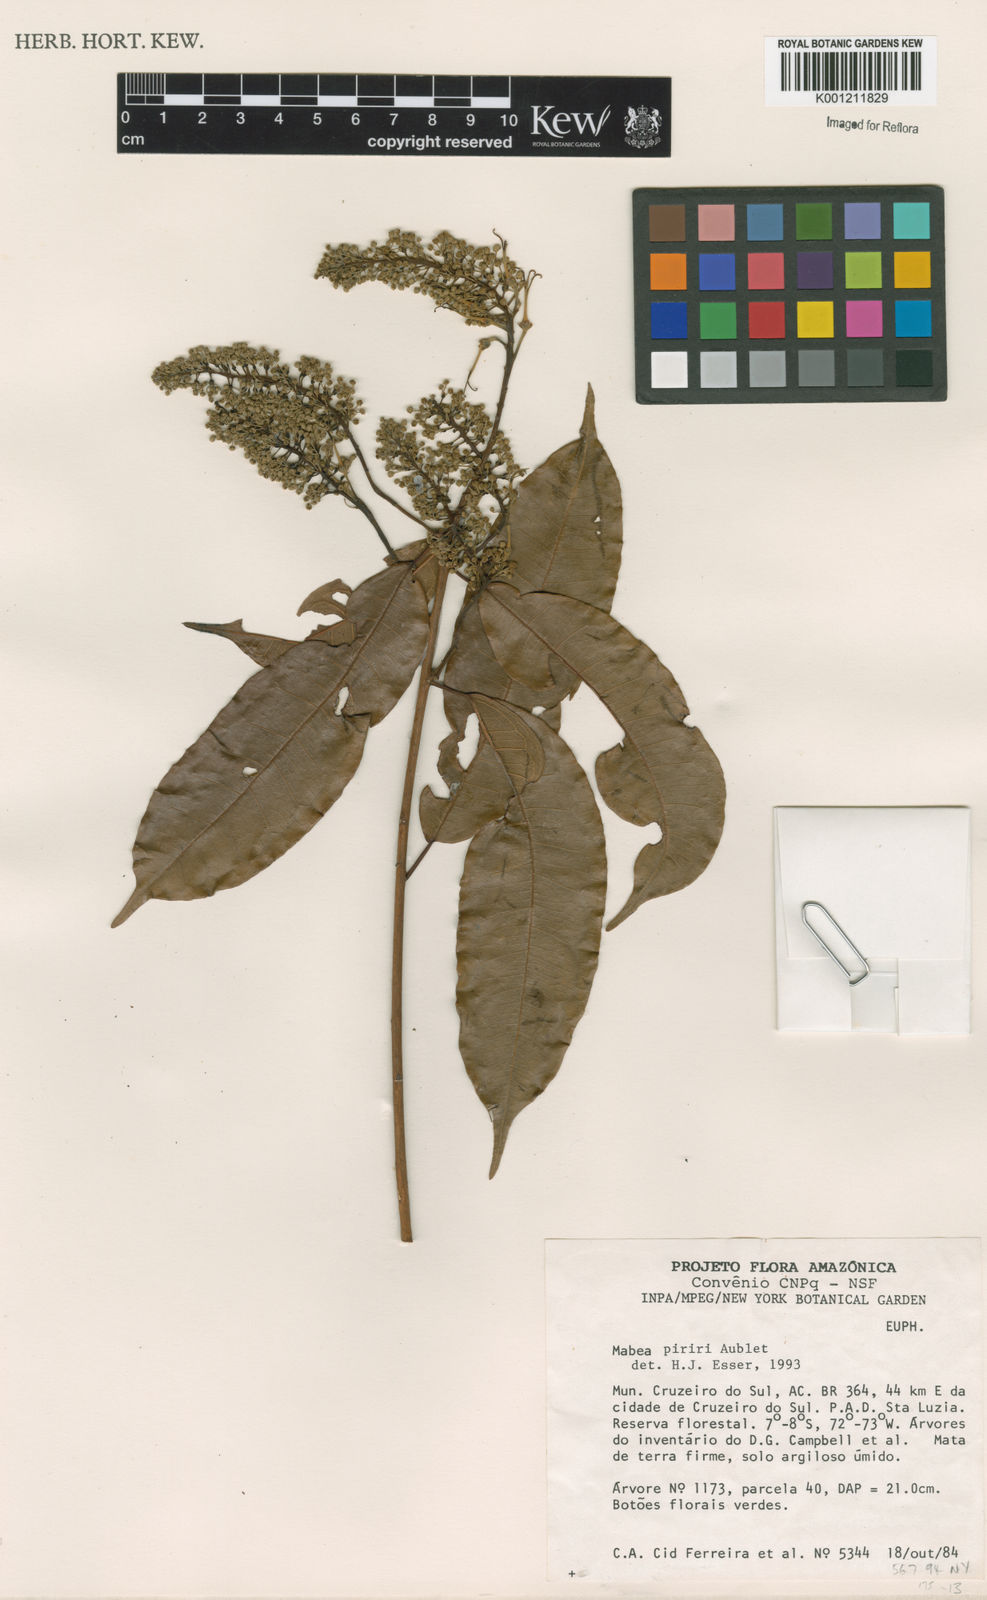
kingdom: Plantae
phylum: Tracheophyta
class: Magnoliopsida
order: Malpighiales
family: Euphorbiaceae
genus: Mabea
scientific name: Mabea piriri
